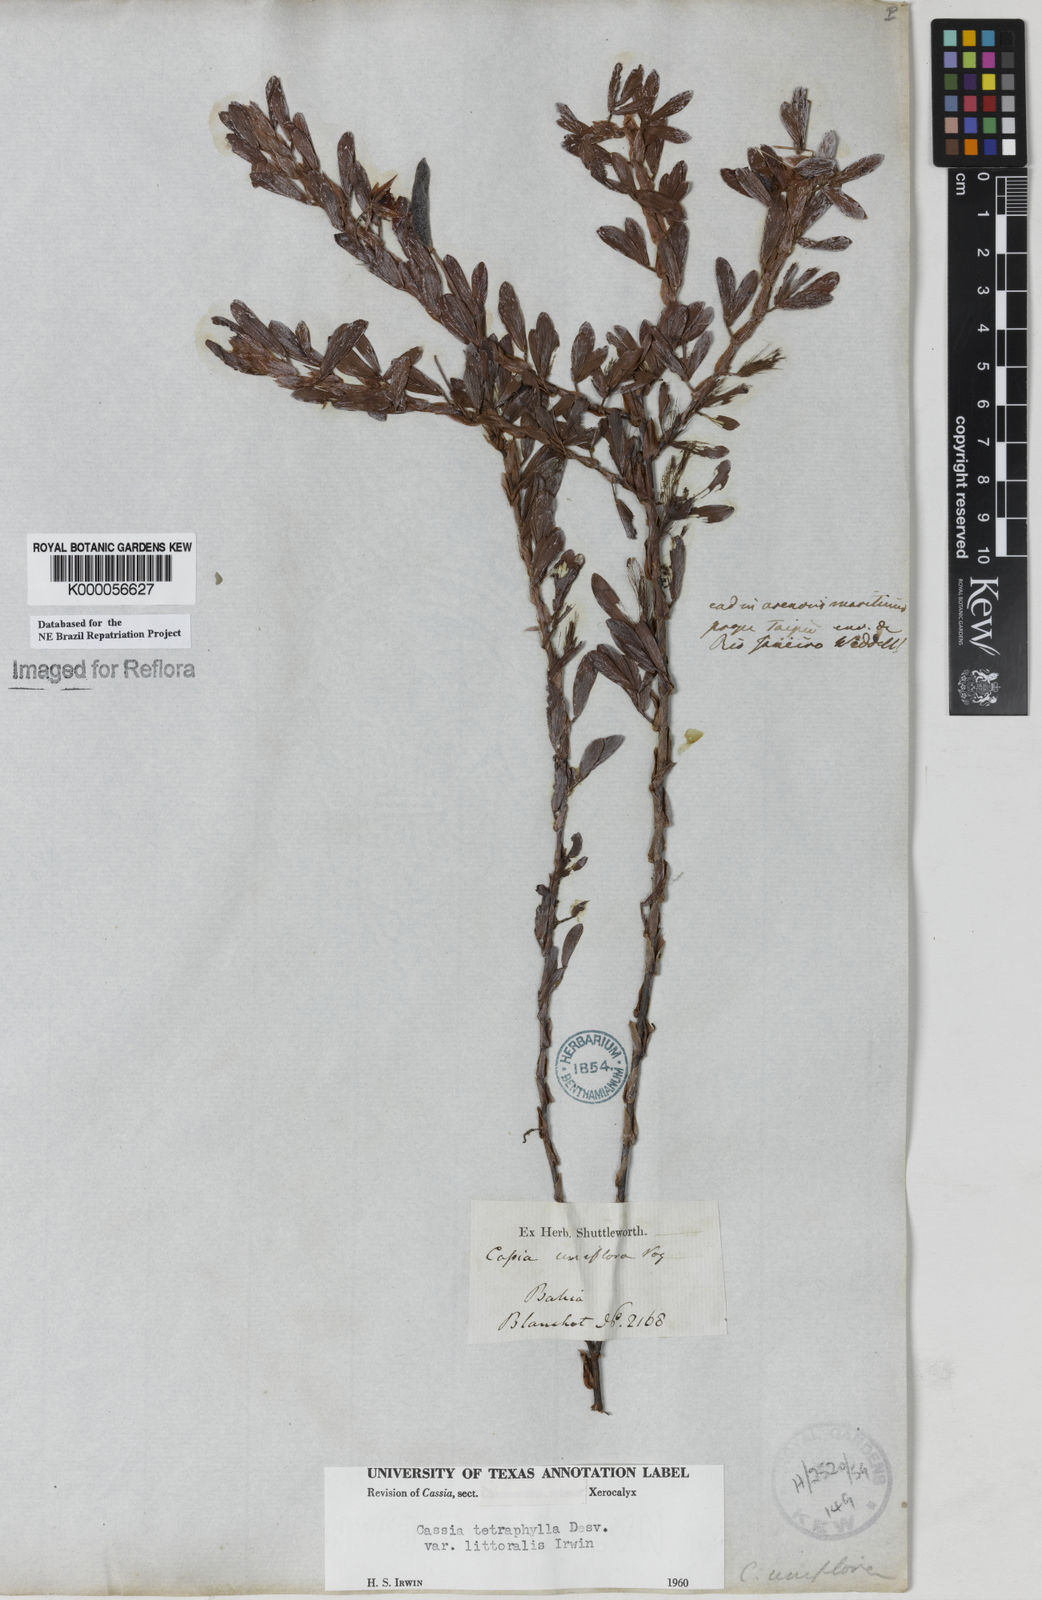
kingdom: Plantae
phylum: Tracheophyta
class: Magnoliopsida
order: Fabales
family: Fabaceae
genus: Chamaecrista
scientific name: Chamaecrista desvauxii
